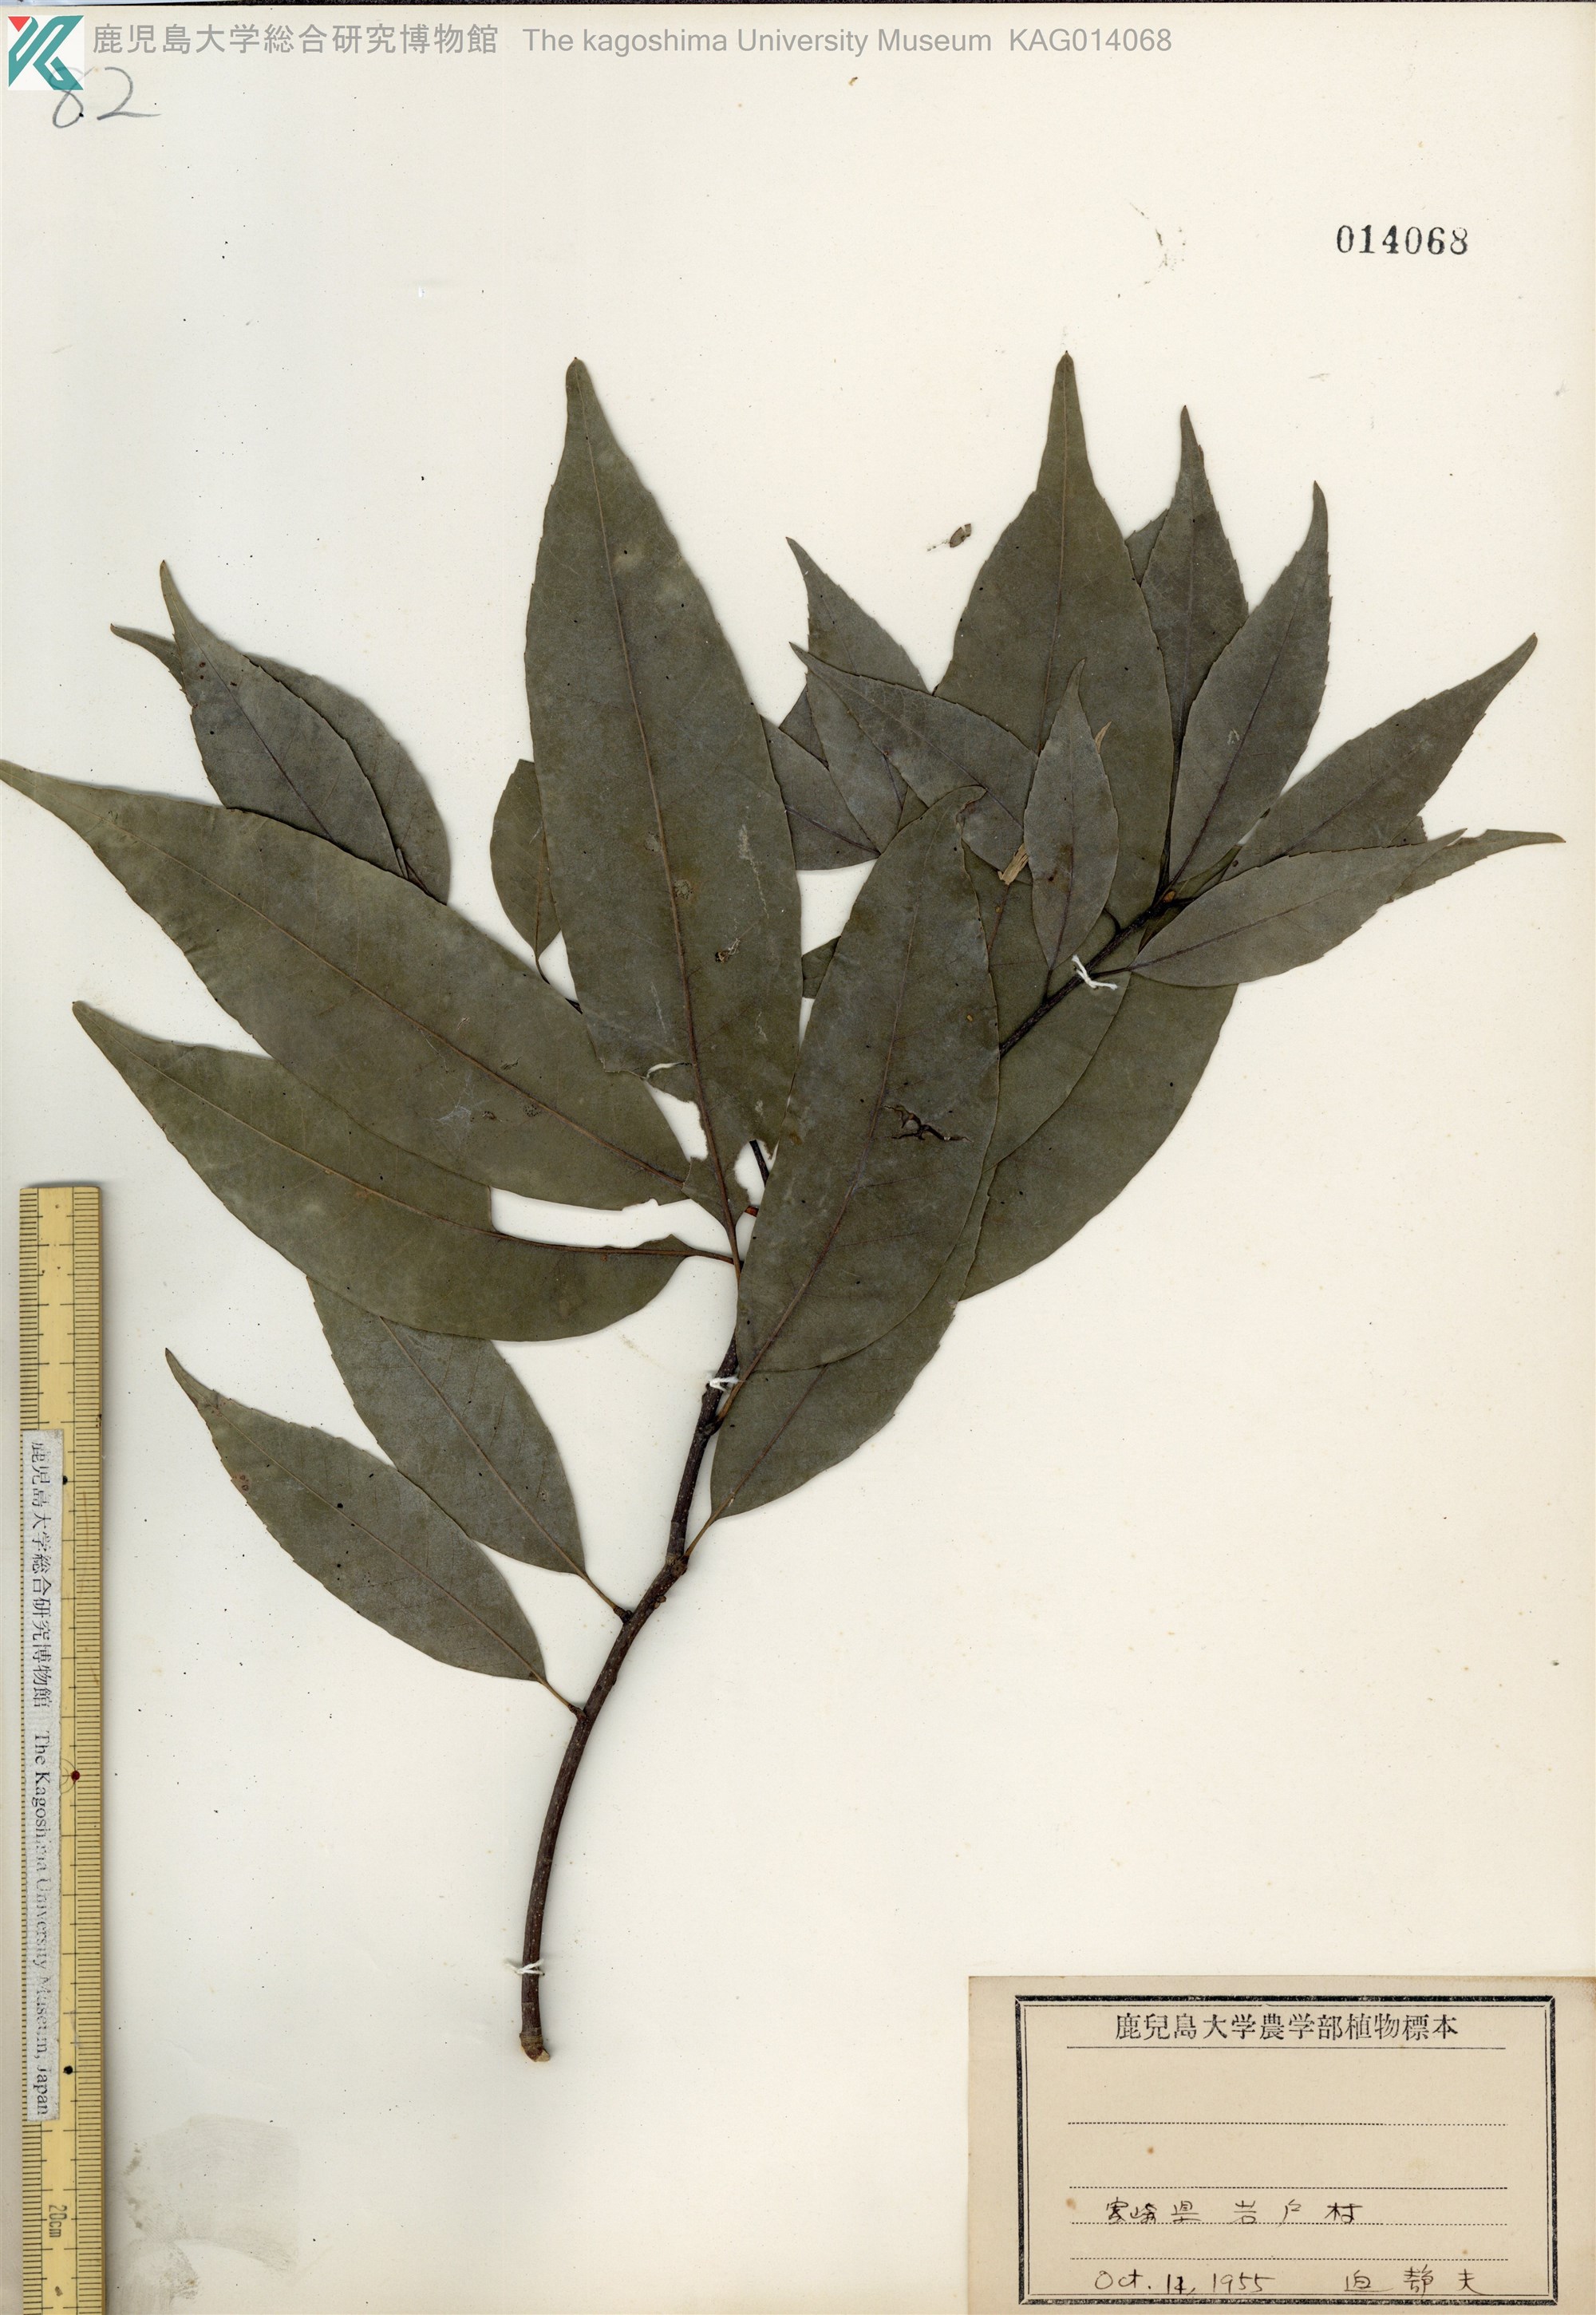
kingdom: Plantae
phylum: Tracheophyta
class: Magnoliopsida
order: Fagales
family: Fagaceae
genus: Quercus
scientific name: Quercus myrsinaefolia
